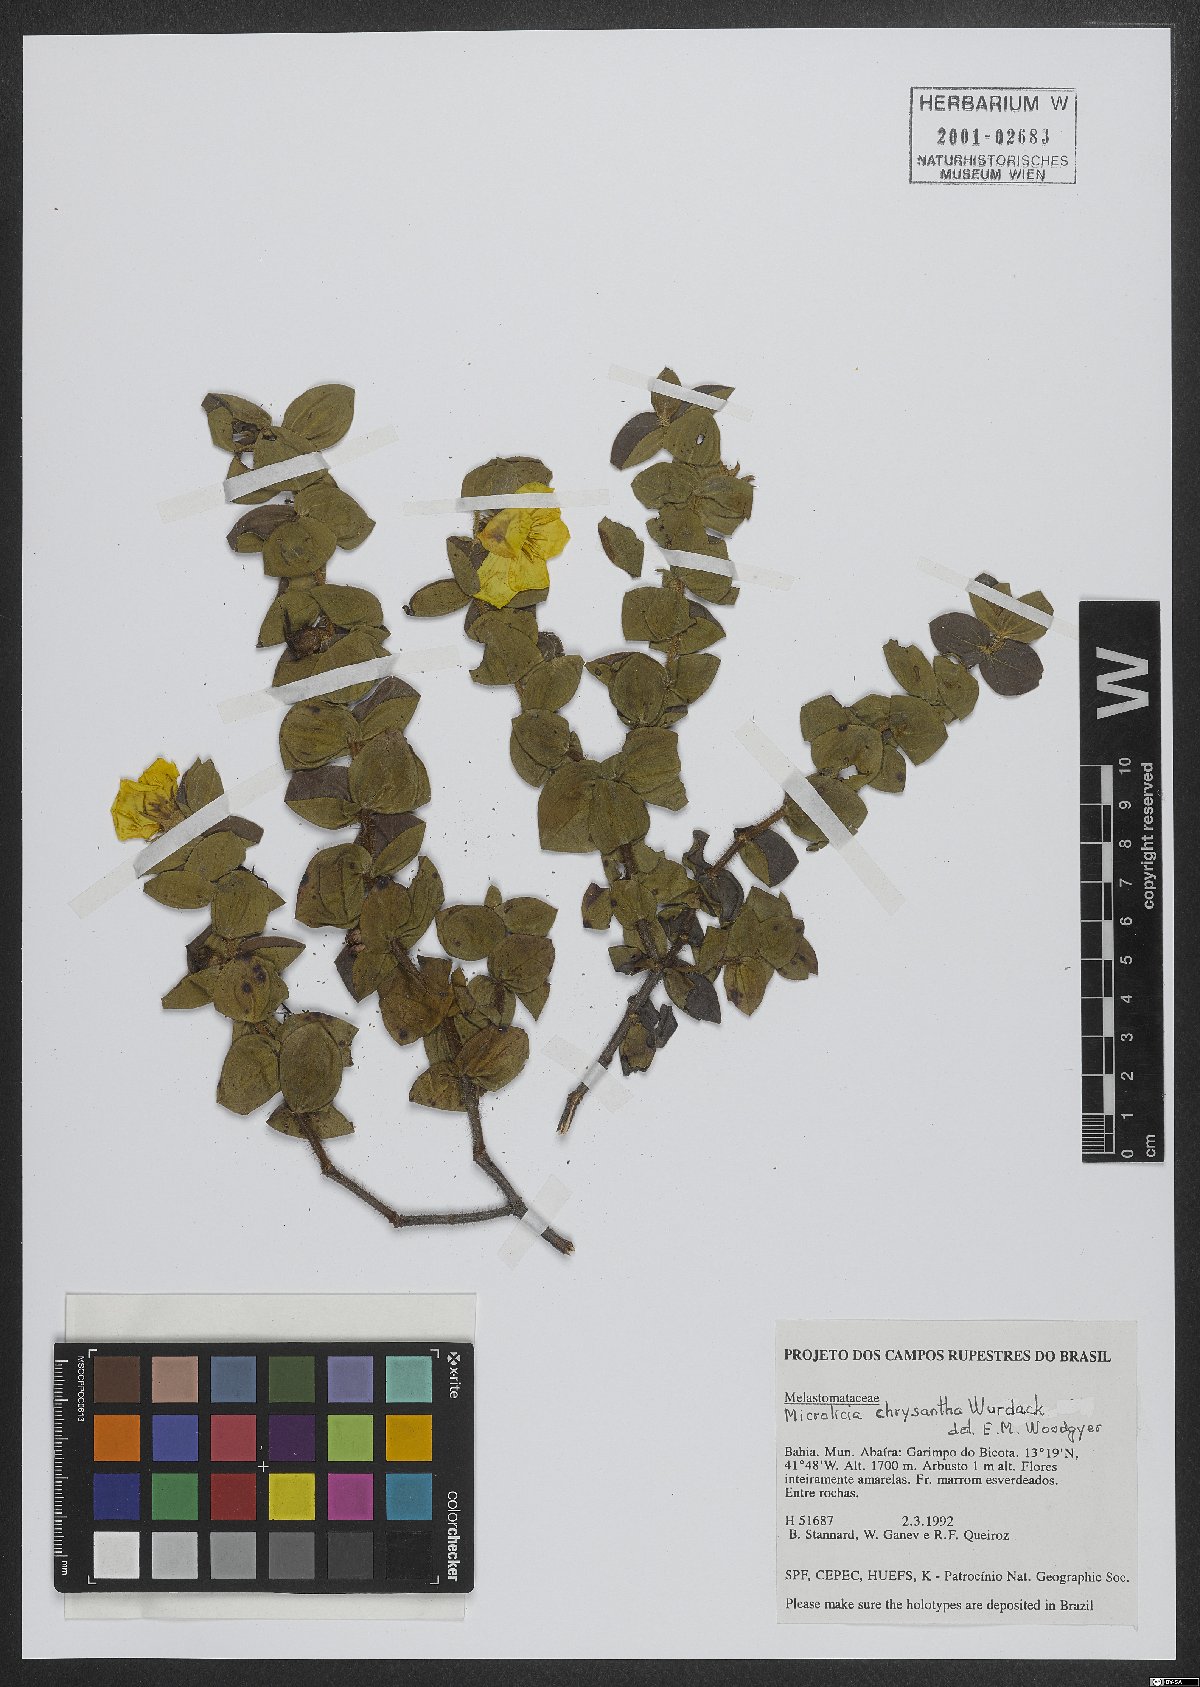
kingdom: Plantae
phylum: Tracheophyta
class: Magnoliopsida
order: Myrtales
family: Melastomataceae
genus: Microlicia
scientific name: Microlicia chrysantha
